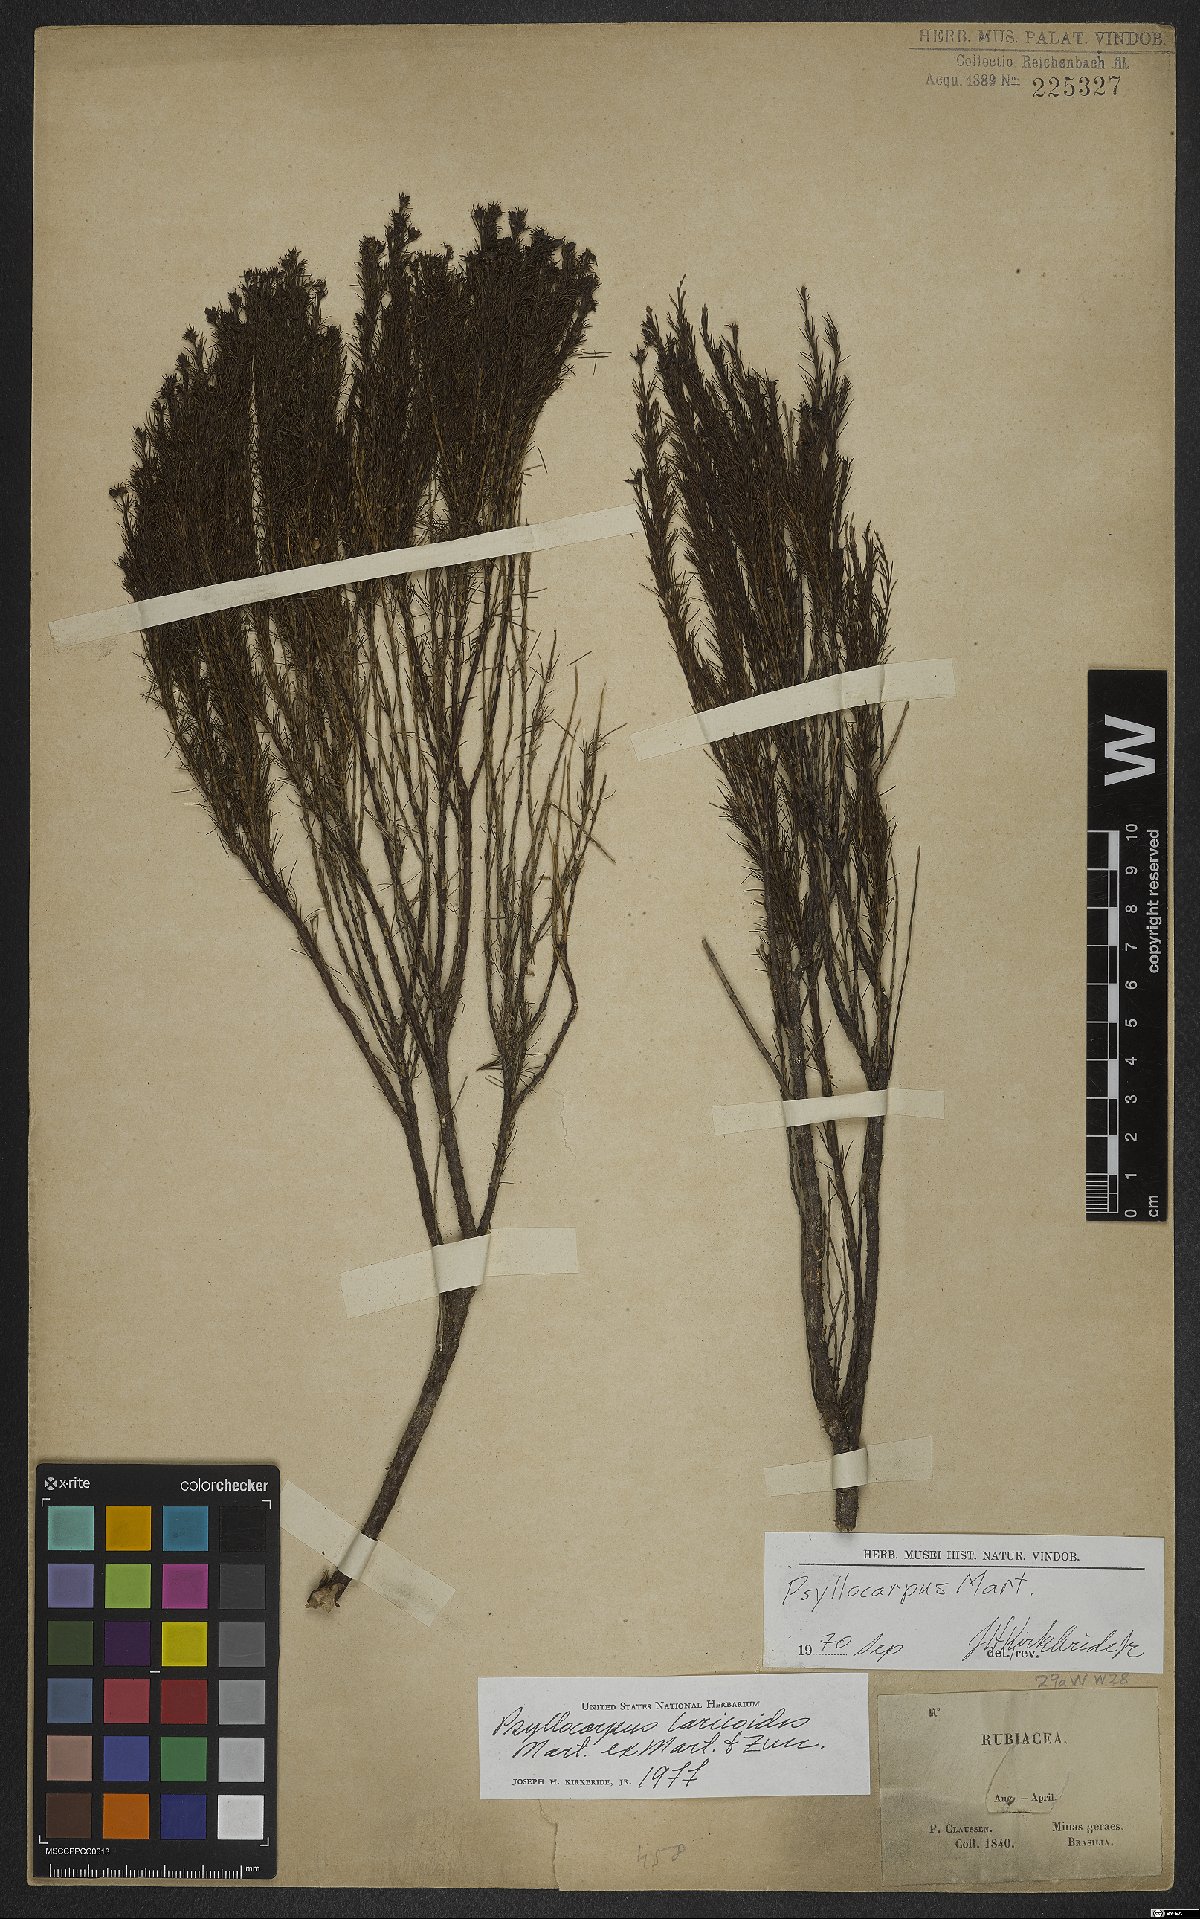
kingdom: Plantae
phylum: Tracheophyta
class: Magnoliopsida
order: Gentianales
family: Rubiaceae
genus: Psyllocarpus
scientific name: Psyllocarpus laricoides
